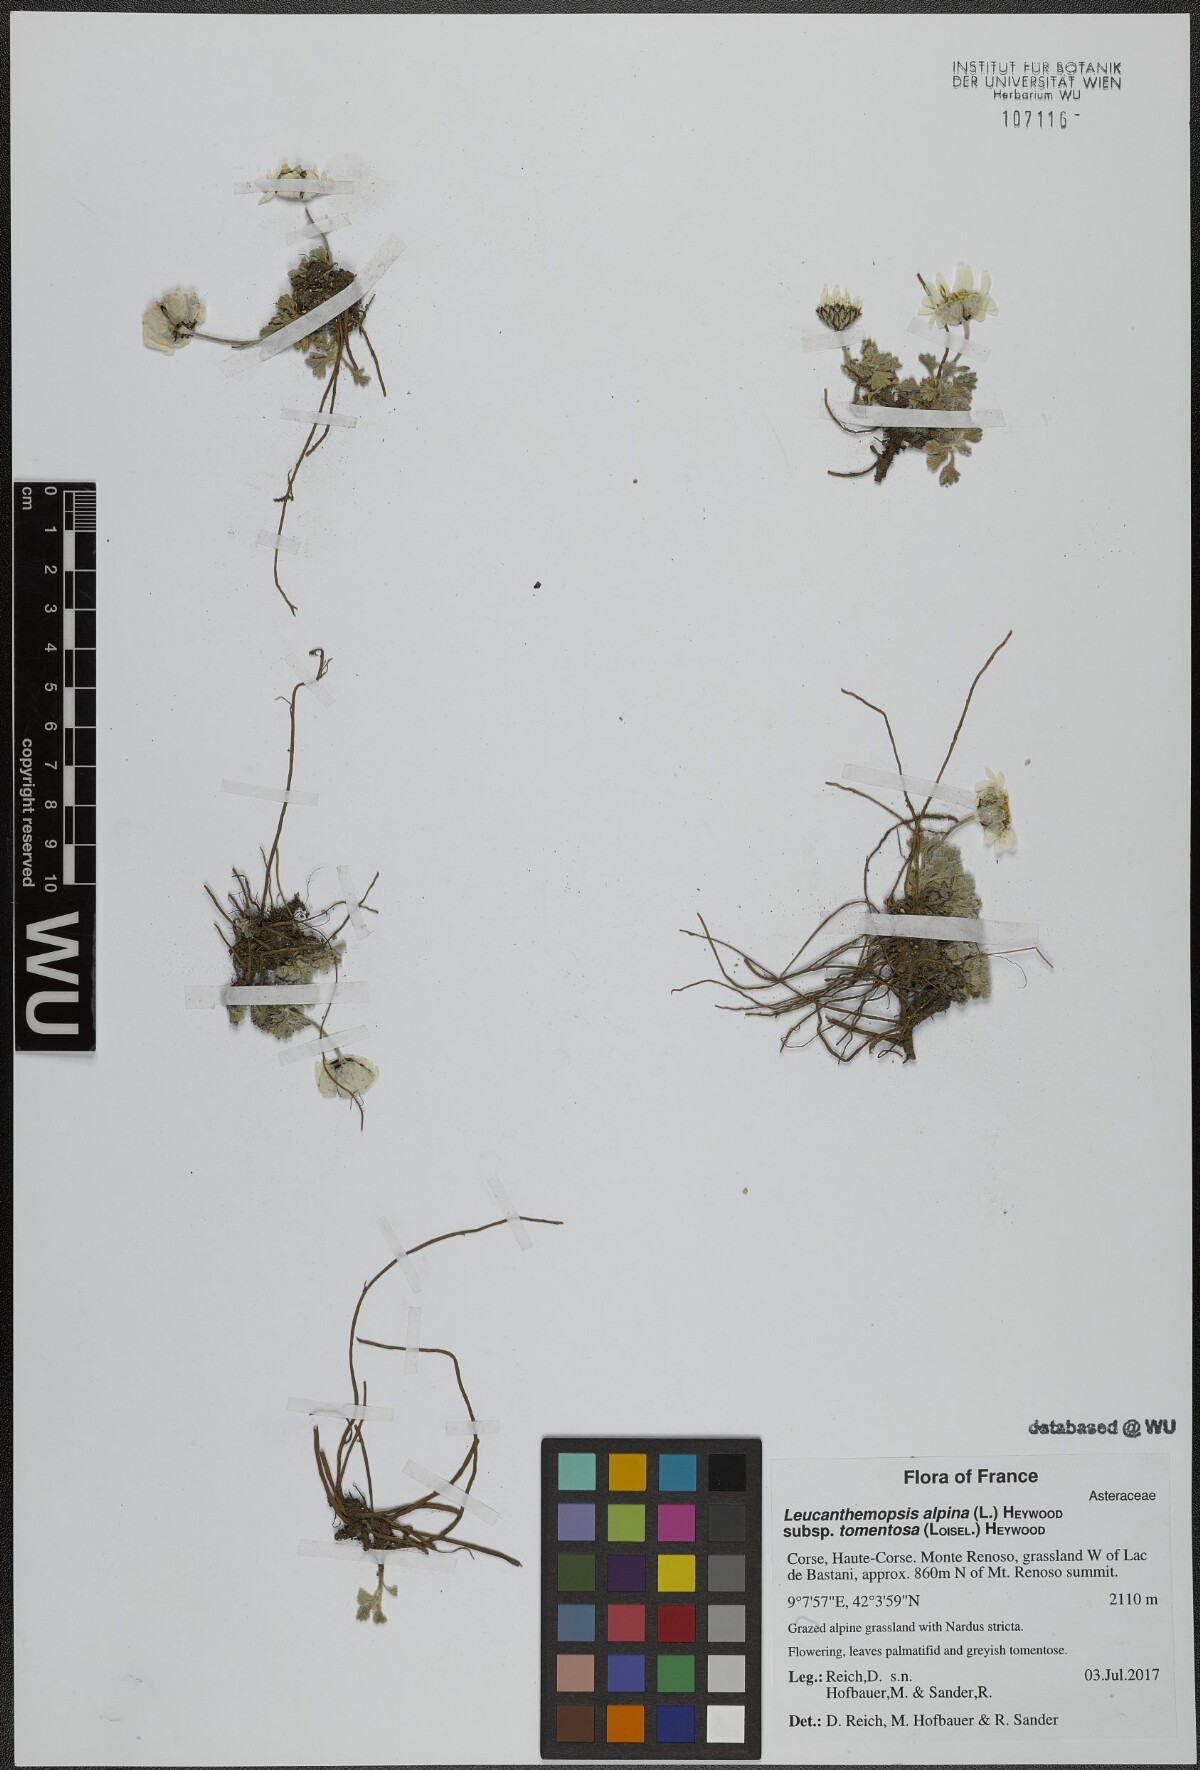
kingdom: Plantae
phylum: Tracheophyta
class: Magnoliopsida
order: Asterales
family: Asteraceae
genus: Leucanthemopsis
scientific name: Leucanthemopsis alpina
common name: Alpine moon daisy
